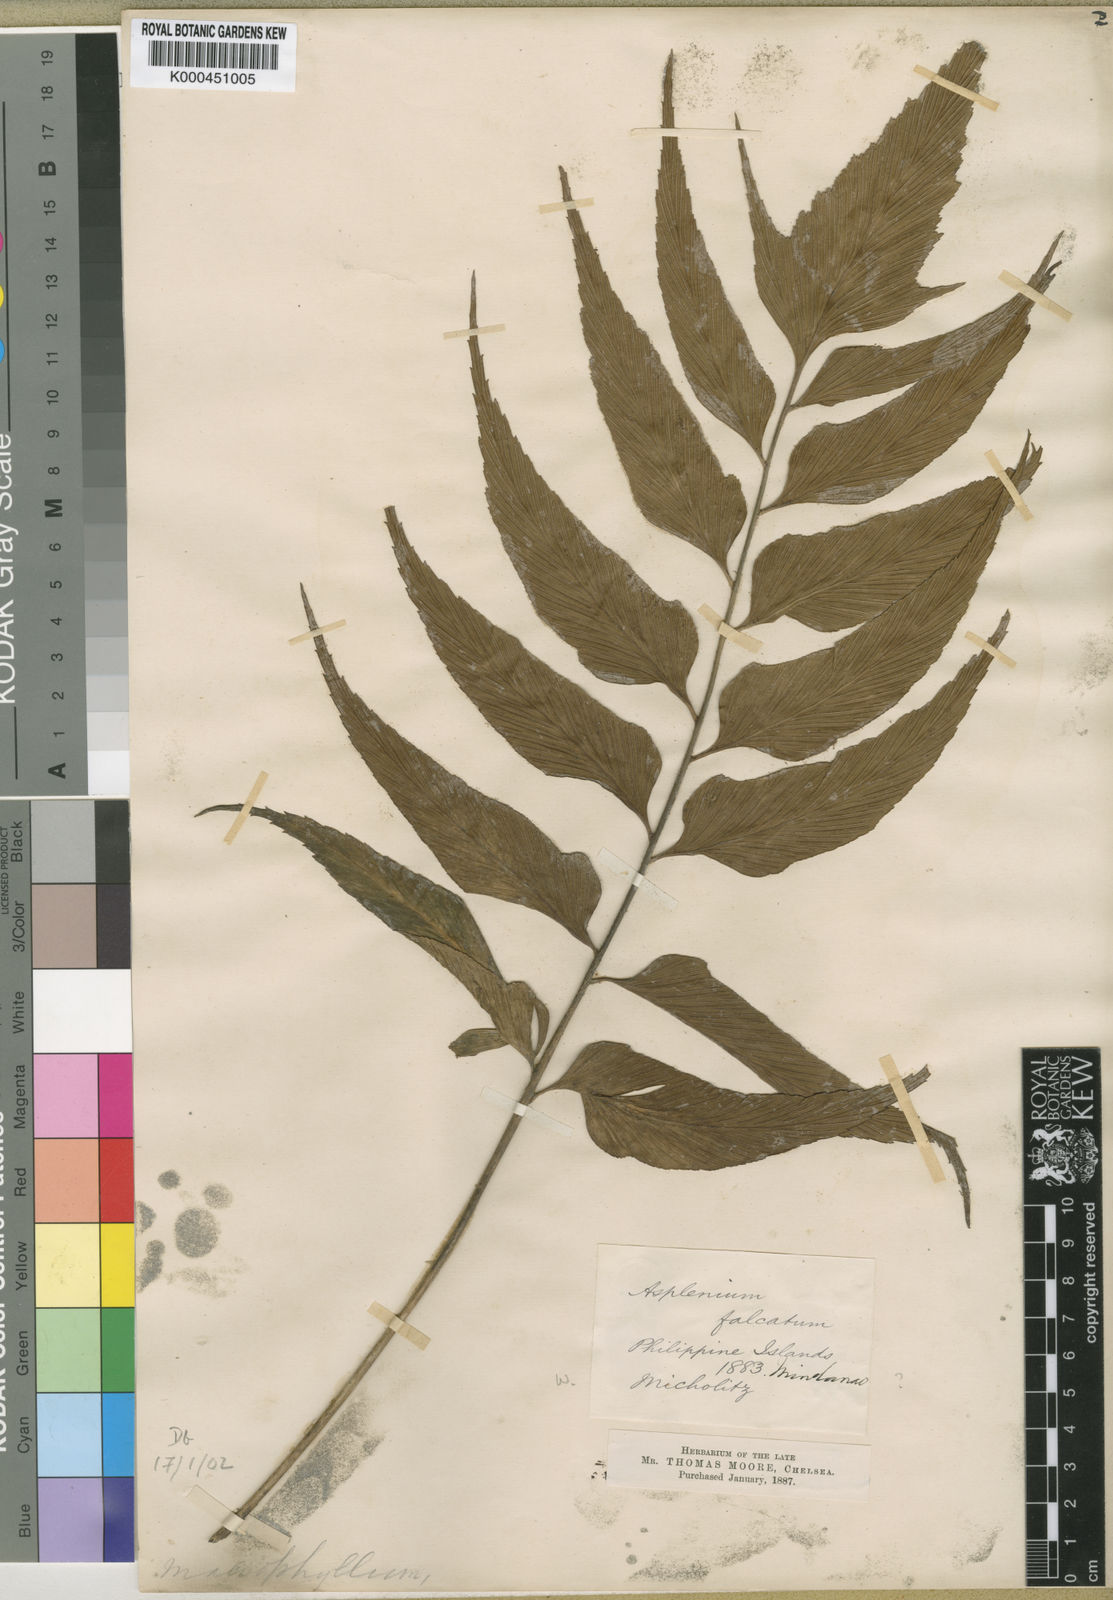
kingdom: Plantae
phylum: Tracheophyta
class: Polypodiopsida
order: Polypodiales
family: Aspleniaceae
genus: Asplenium
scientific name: Asplenium macrophyllum
